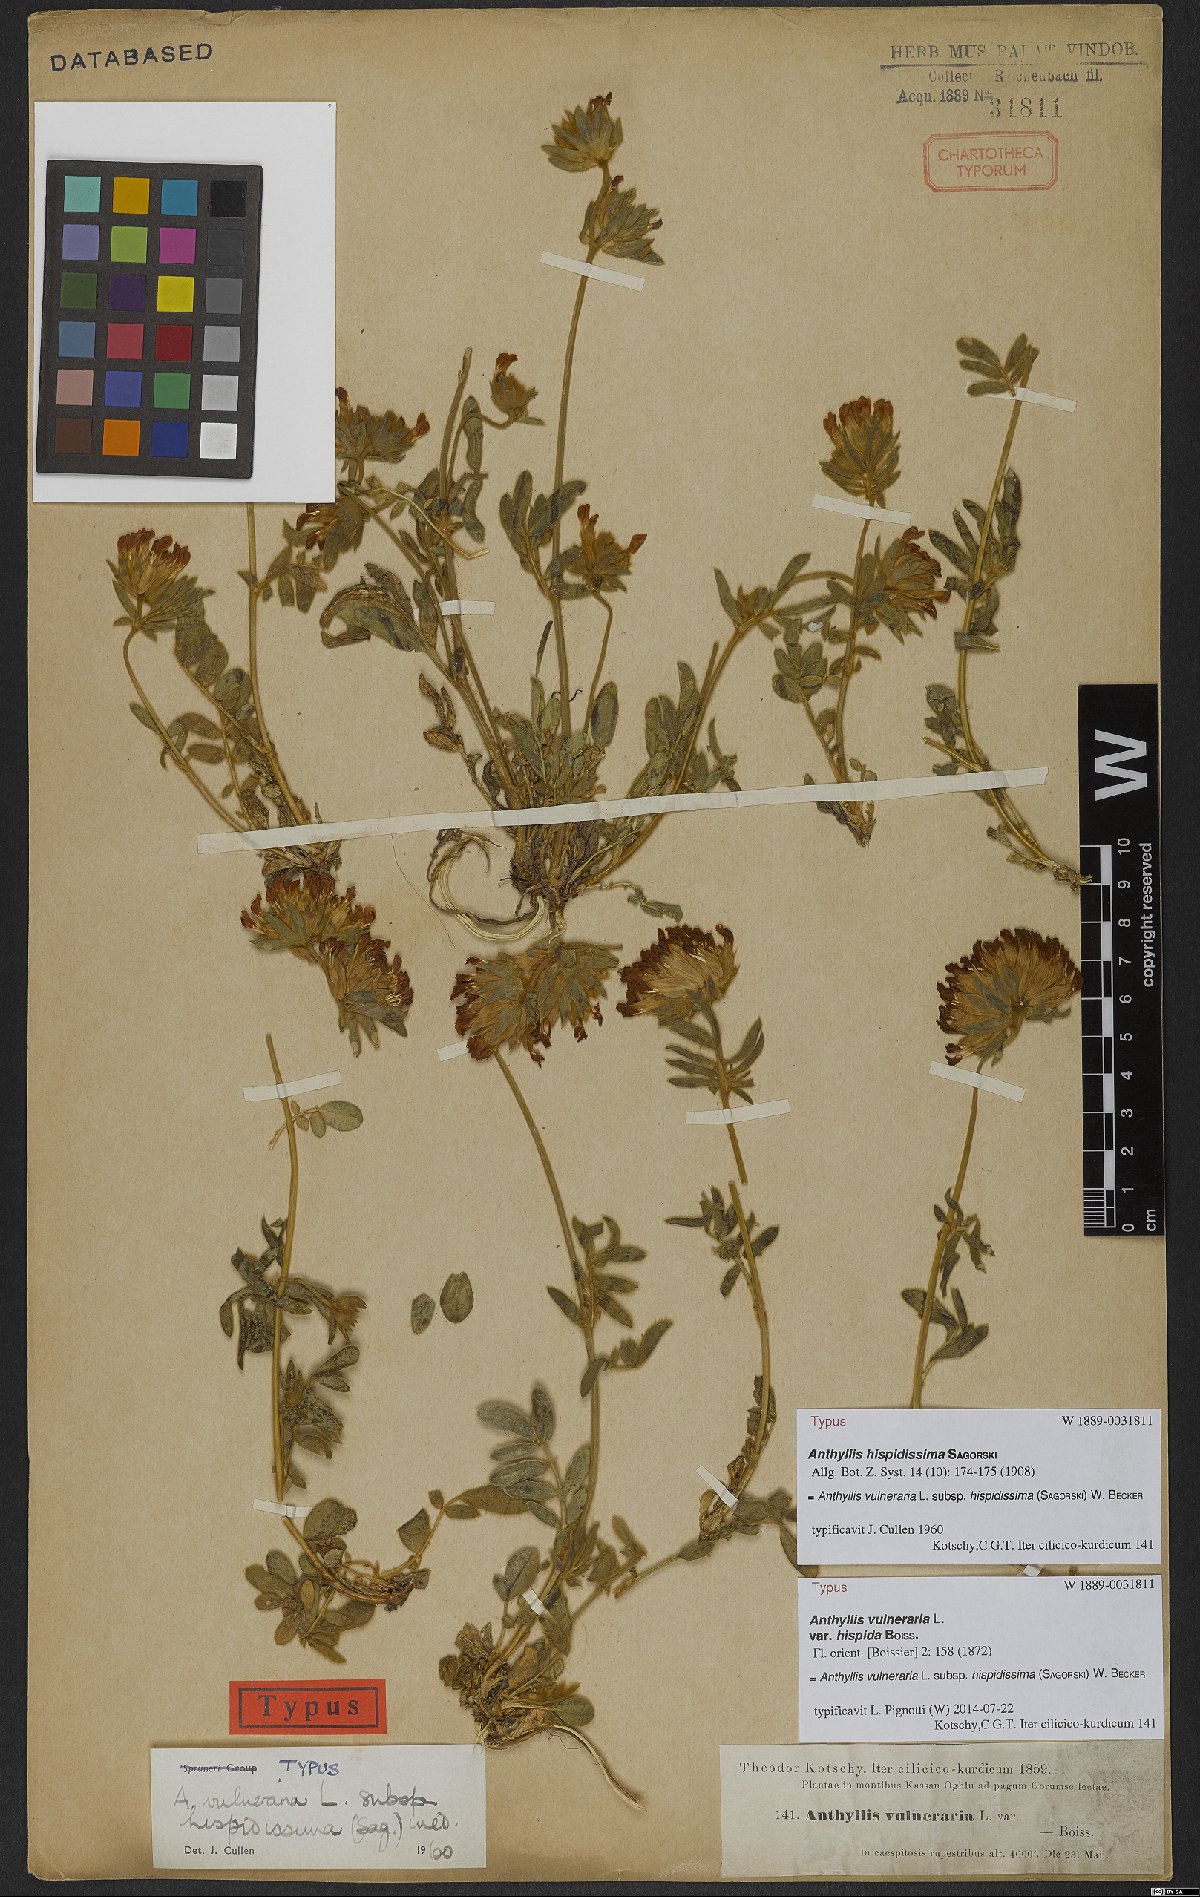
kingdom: Plantae
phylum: Tracheophyta
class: Magnoliopsida
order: Fabales
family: Fabaceae
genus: Anthyllis
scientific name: Anthyllis vulneraria
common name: Kidney vetch
